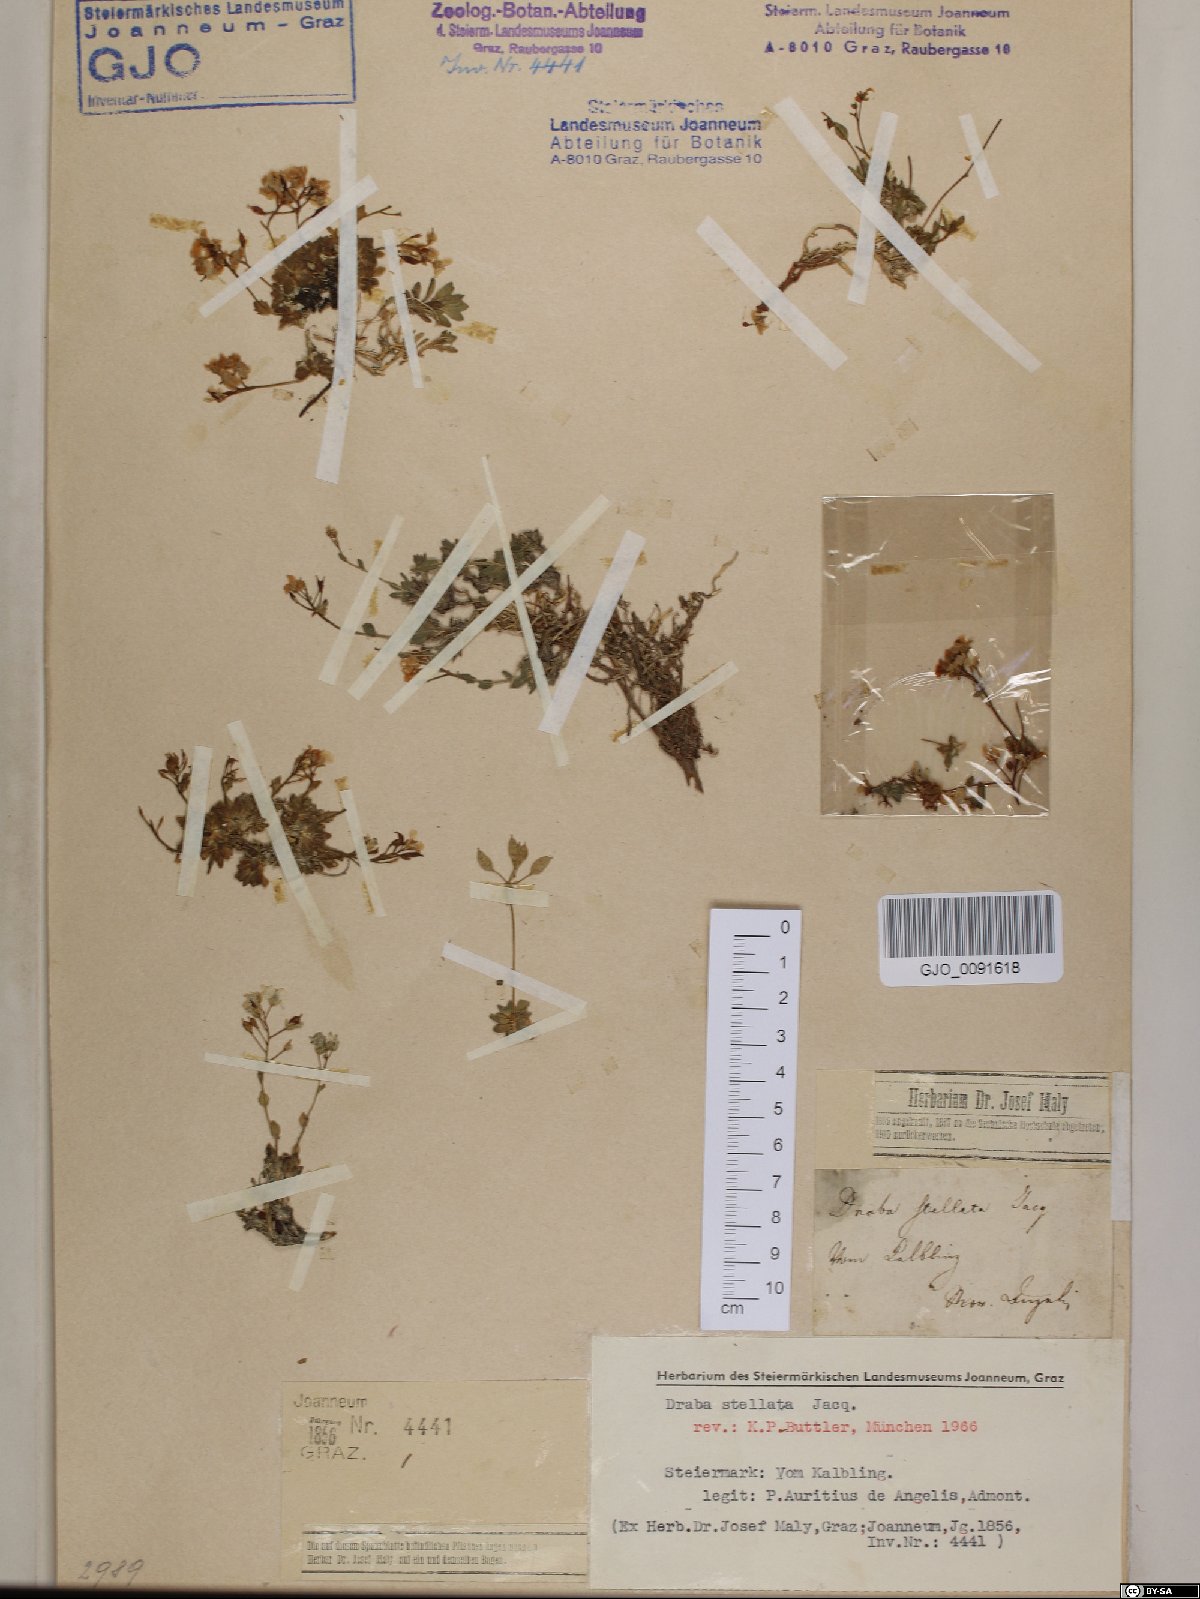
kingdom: Plantae
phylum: Tracheophyta
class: Magnoliopsida
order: Brassicales
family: Brassicaceae
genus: Draba
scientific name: Draba stellata
